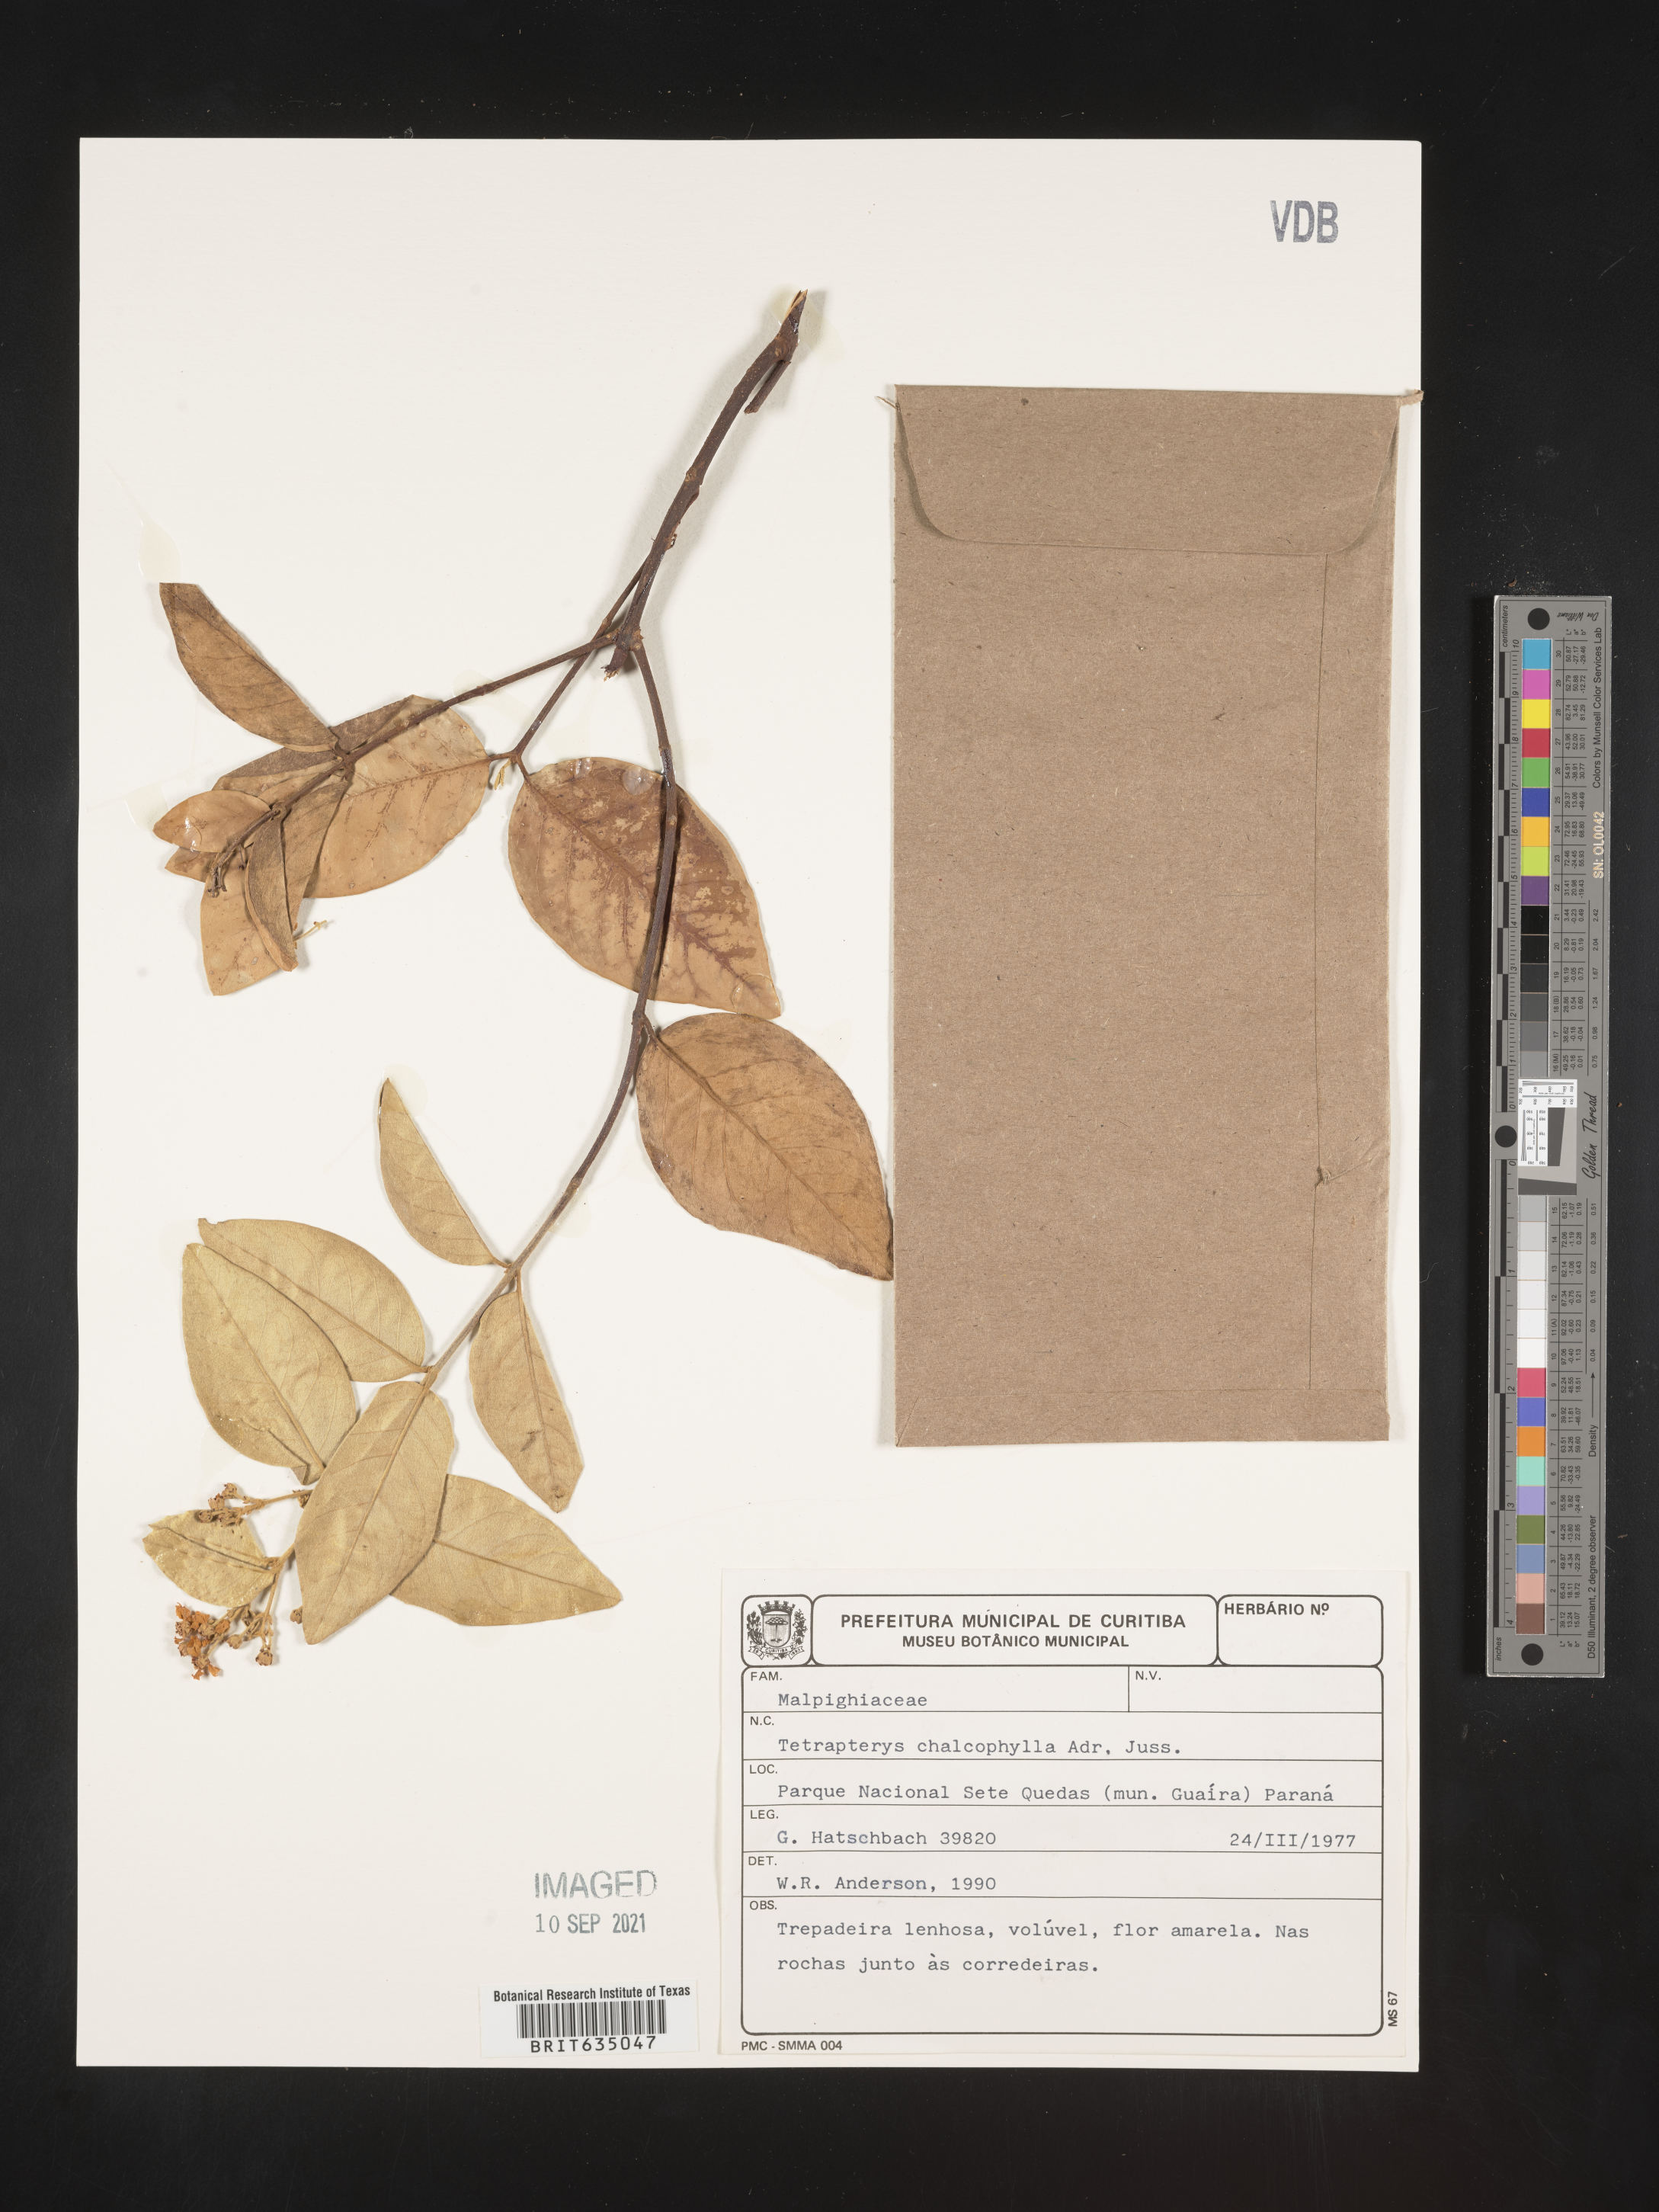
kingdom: Plantae
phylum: Tracheophyta
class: Magnoliopsida
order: Ericales
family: Styracaceae
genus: Tetrapteris
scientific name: Tetrapteris
